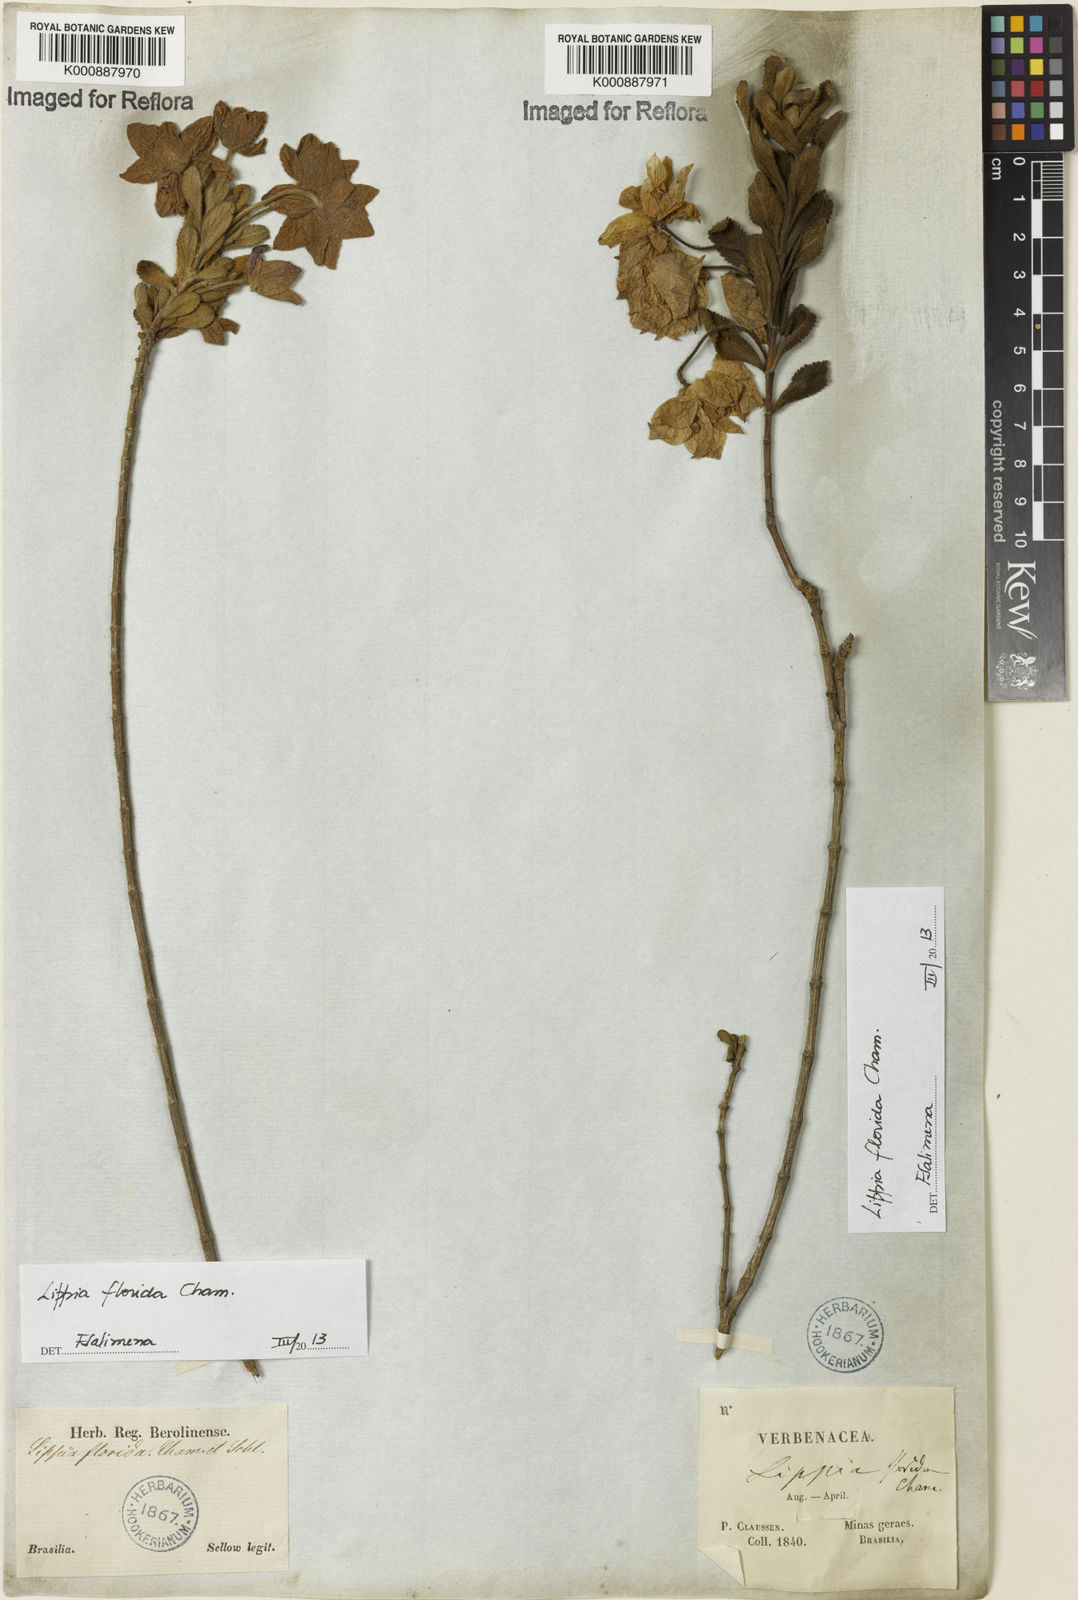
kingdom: Plantae
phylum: Tracheophyta
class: Magnoliopsida
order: Lamiales
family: Verbenaceae
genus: Lippia
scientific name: Lippia florida
